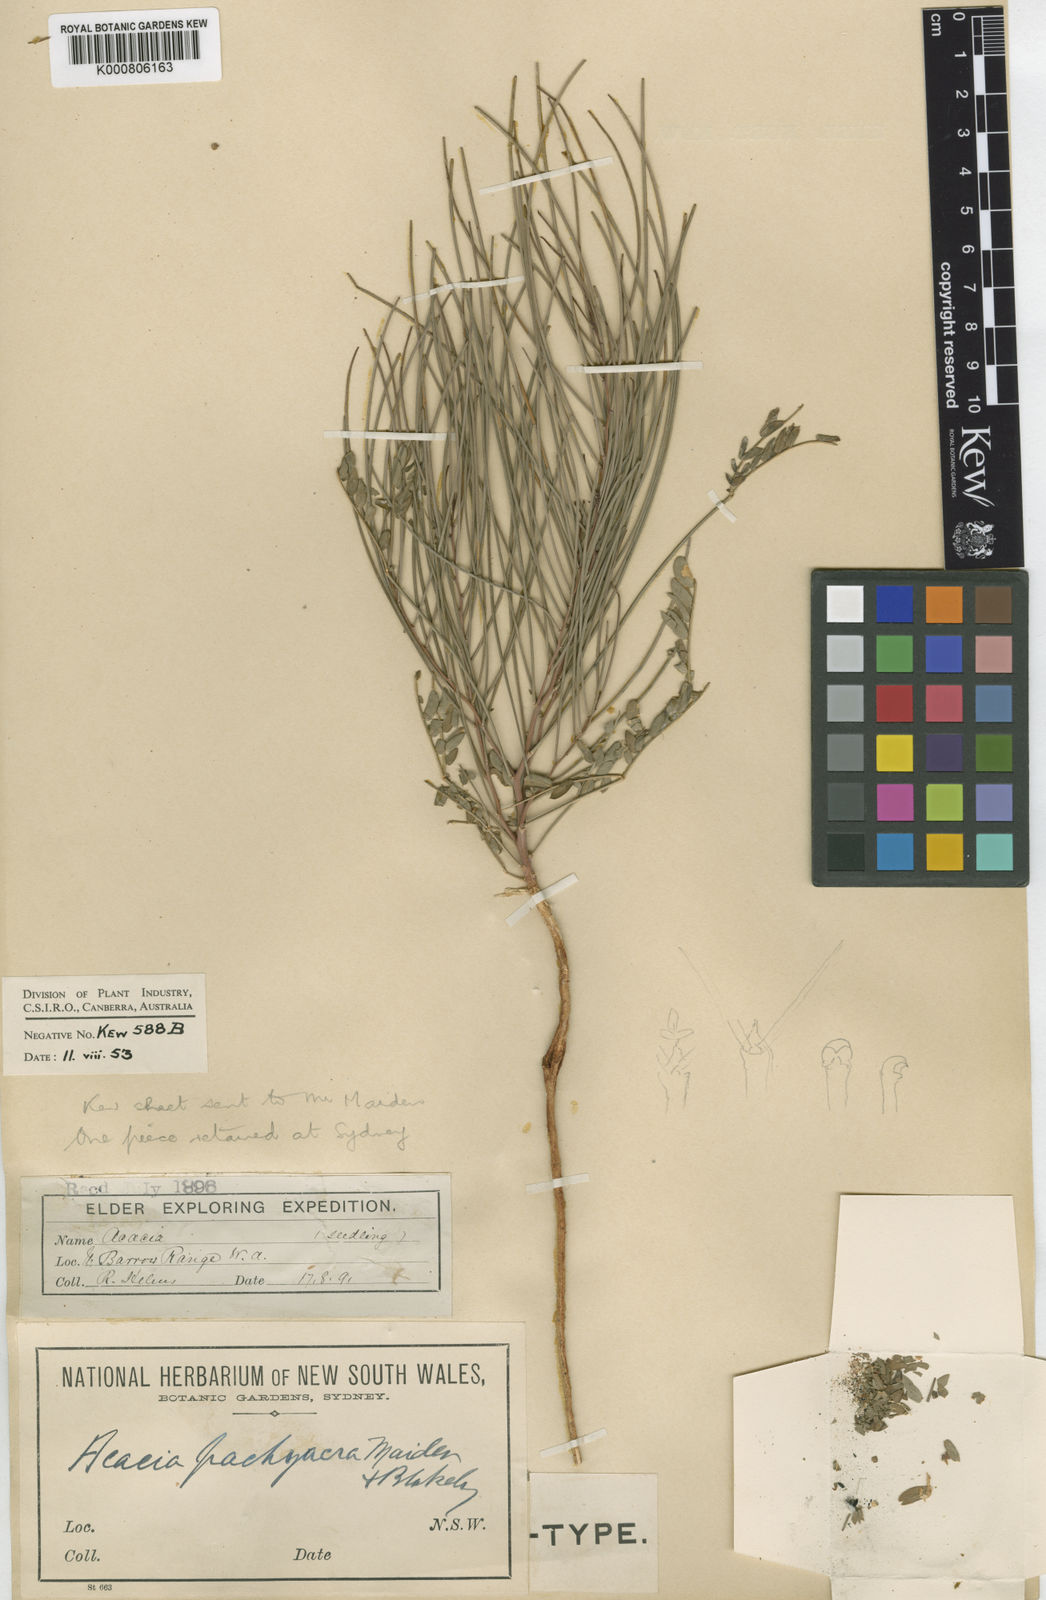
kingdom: Plantae
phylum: Tracheophyta
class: Magnoliopsida
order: Fabales
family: Fabaceae
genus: Acacia
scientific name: Acacia pachyacra
